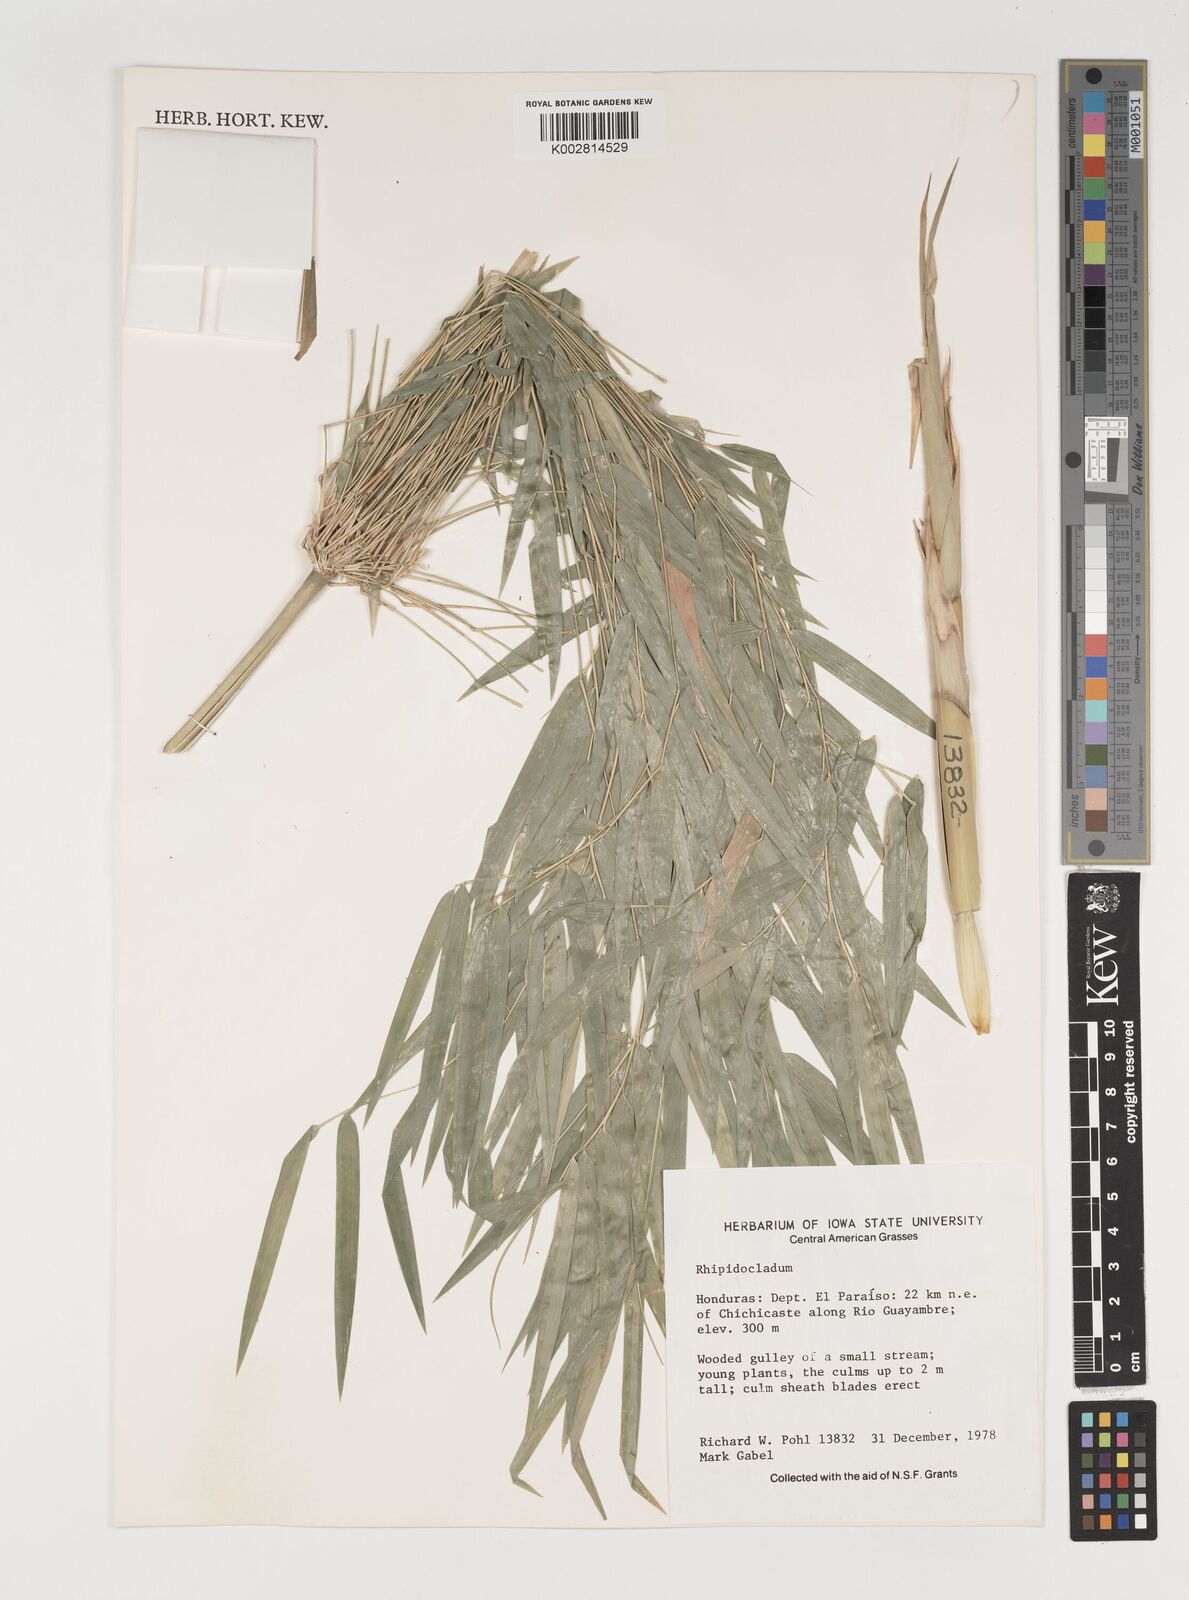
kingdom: Plantae
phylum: Tracheophyta
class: Liliopsida
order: Poales
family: Poaceae
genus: Rhipidocladum
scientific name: Rhipidocladum
